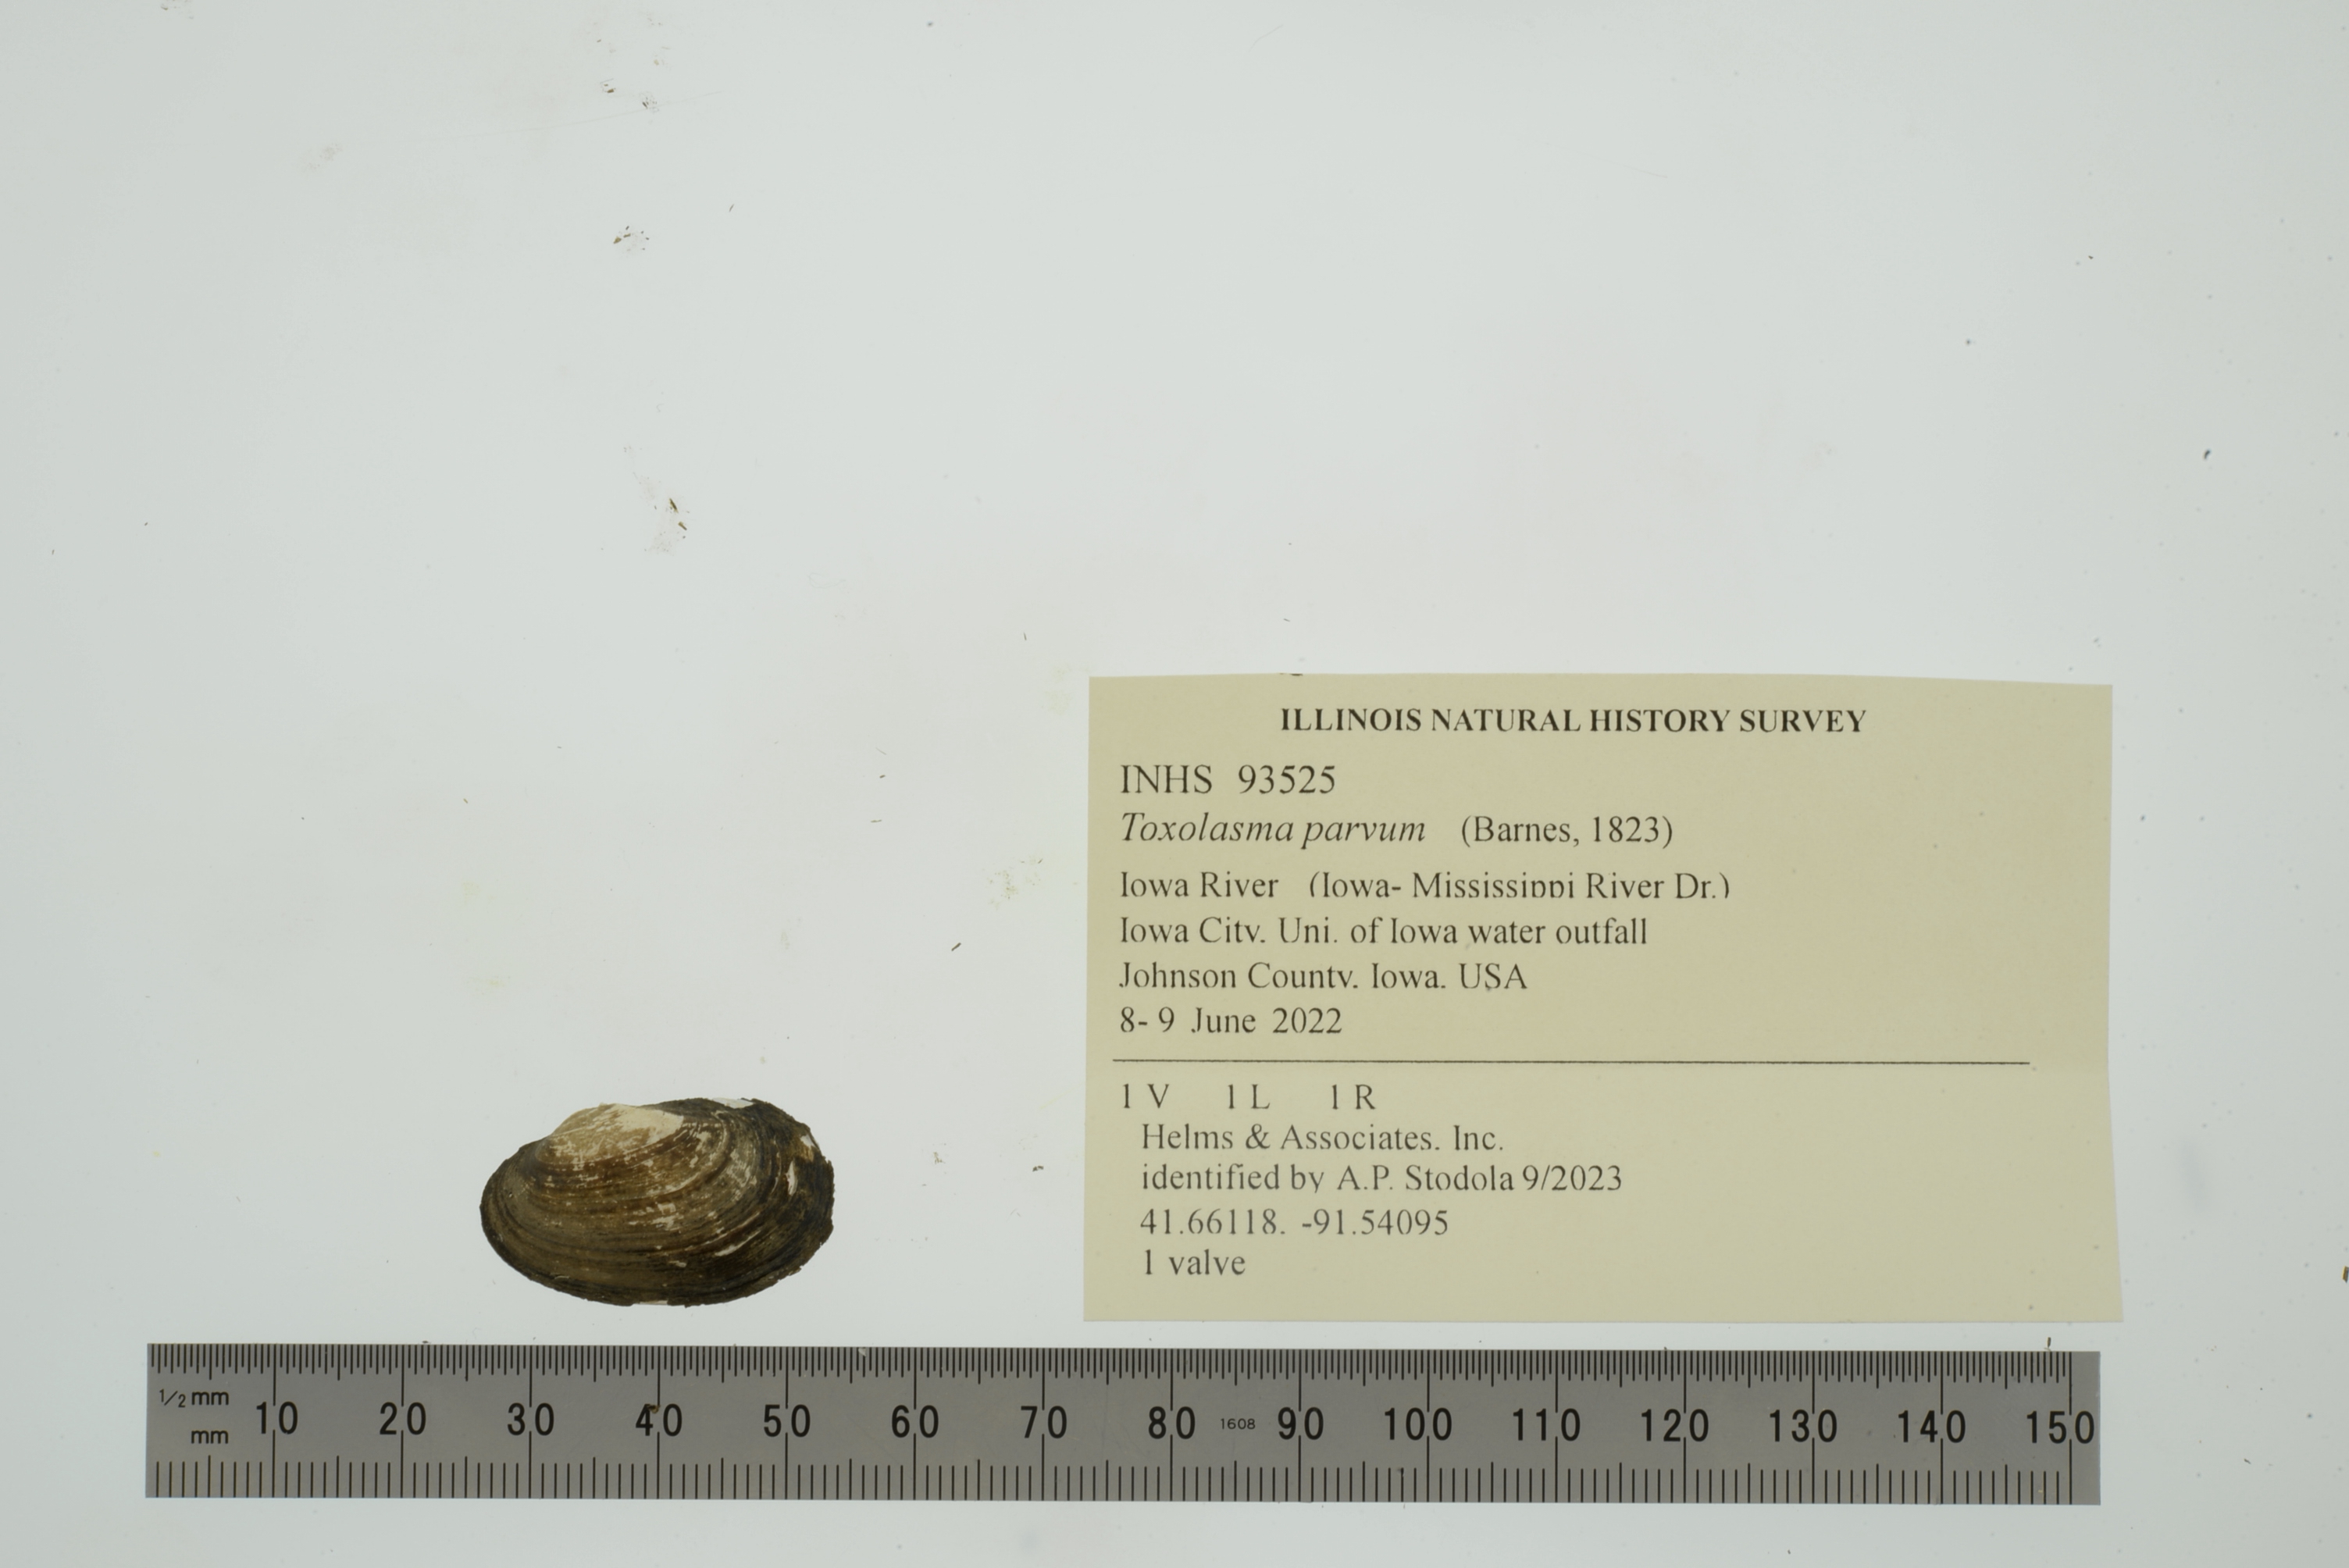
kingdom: Animalia
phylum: Mollusca
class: Bivalvia
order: Unionida
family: Unionidae
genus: Toxolasma
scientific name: Toxolasma parvum
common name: Lilliput
